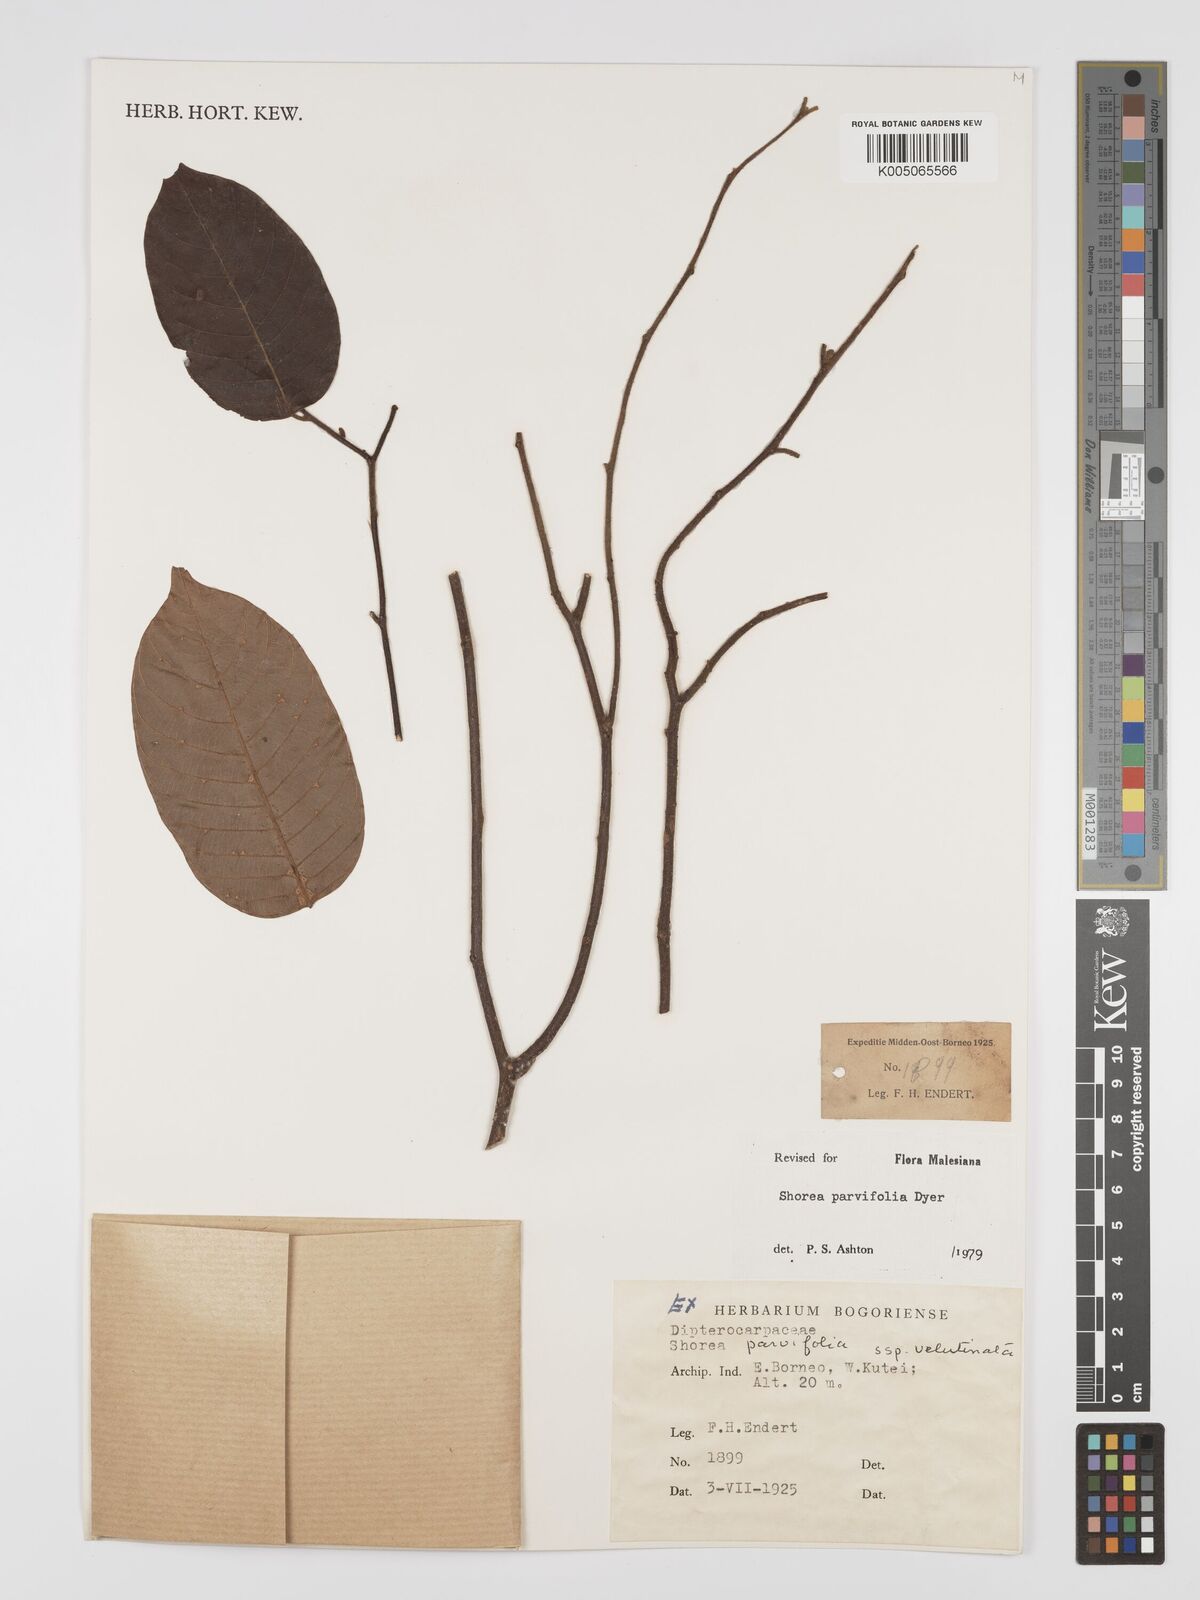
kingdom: Plantae
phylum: Tracheophyta
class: Magnoliopsida
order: Malvales
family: Dipterocarpaceae
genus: Shorea
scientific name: Shorea parvifolia
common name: Light red meranti
